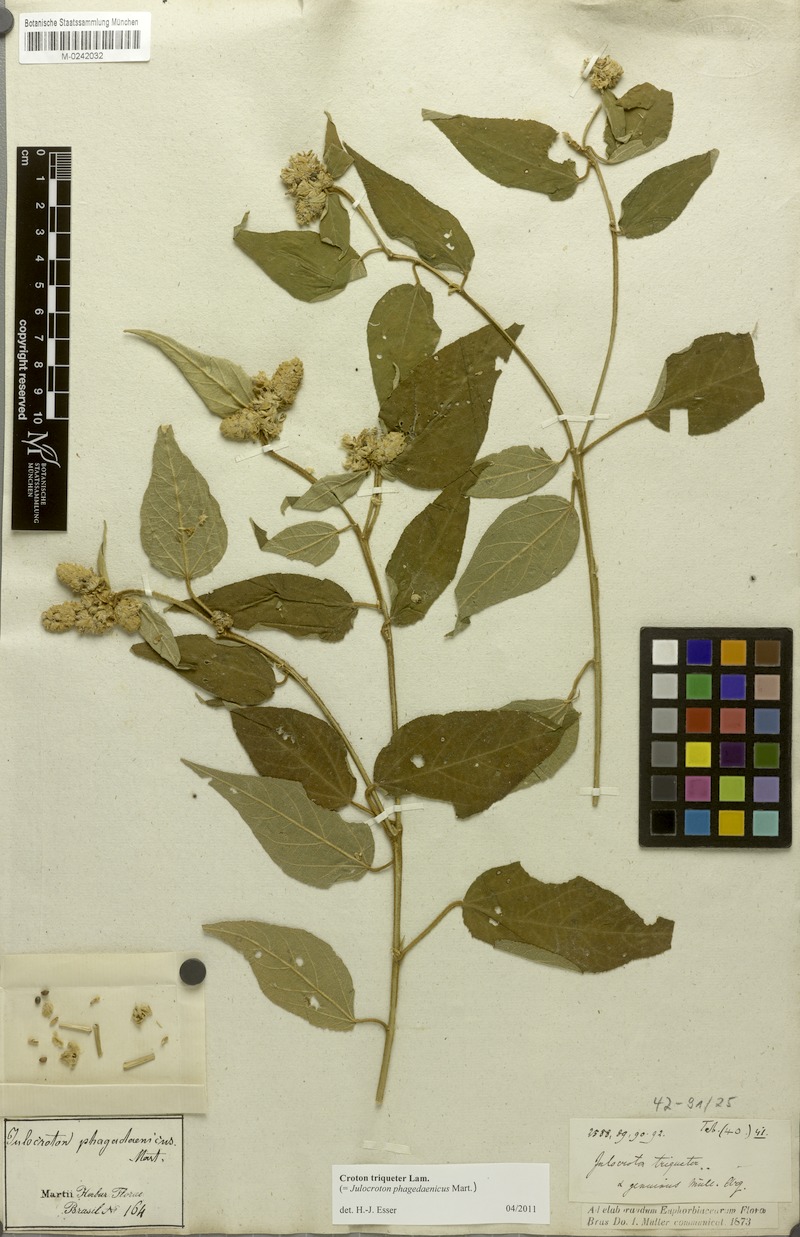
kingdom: Plantae
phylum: Tracheophyta
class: Magnoliopsida
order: Malpighiales
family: Euphorbiaceae
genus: Croton
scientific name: Croton triqueter
